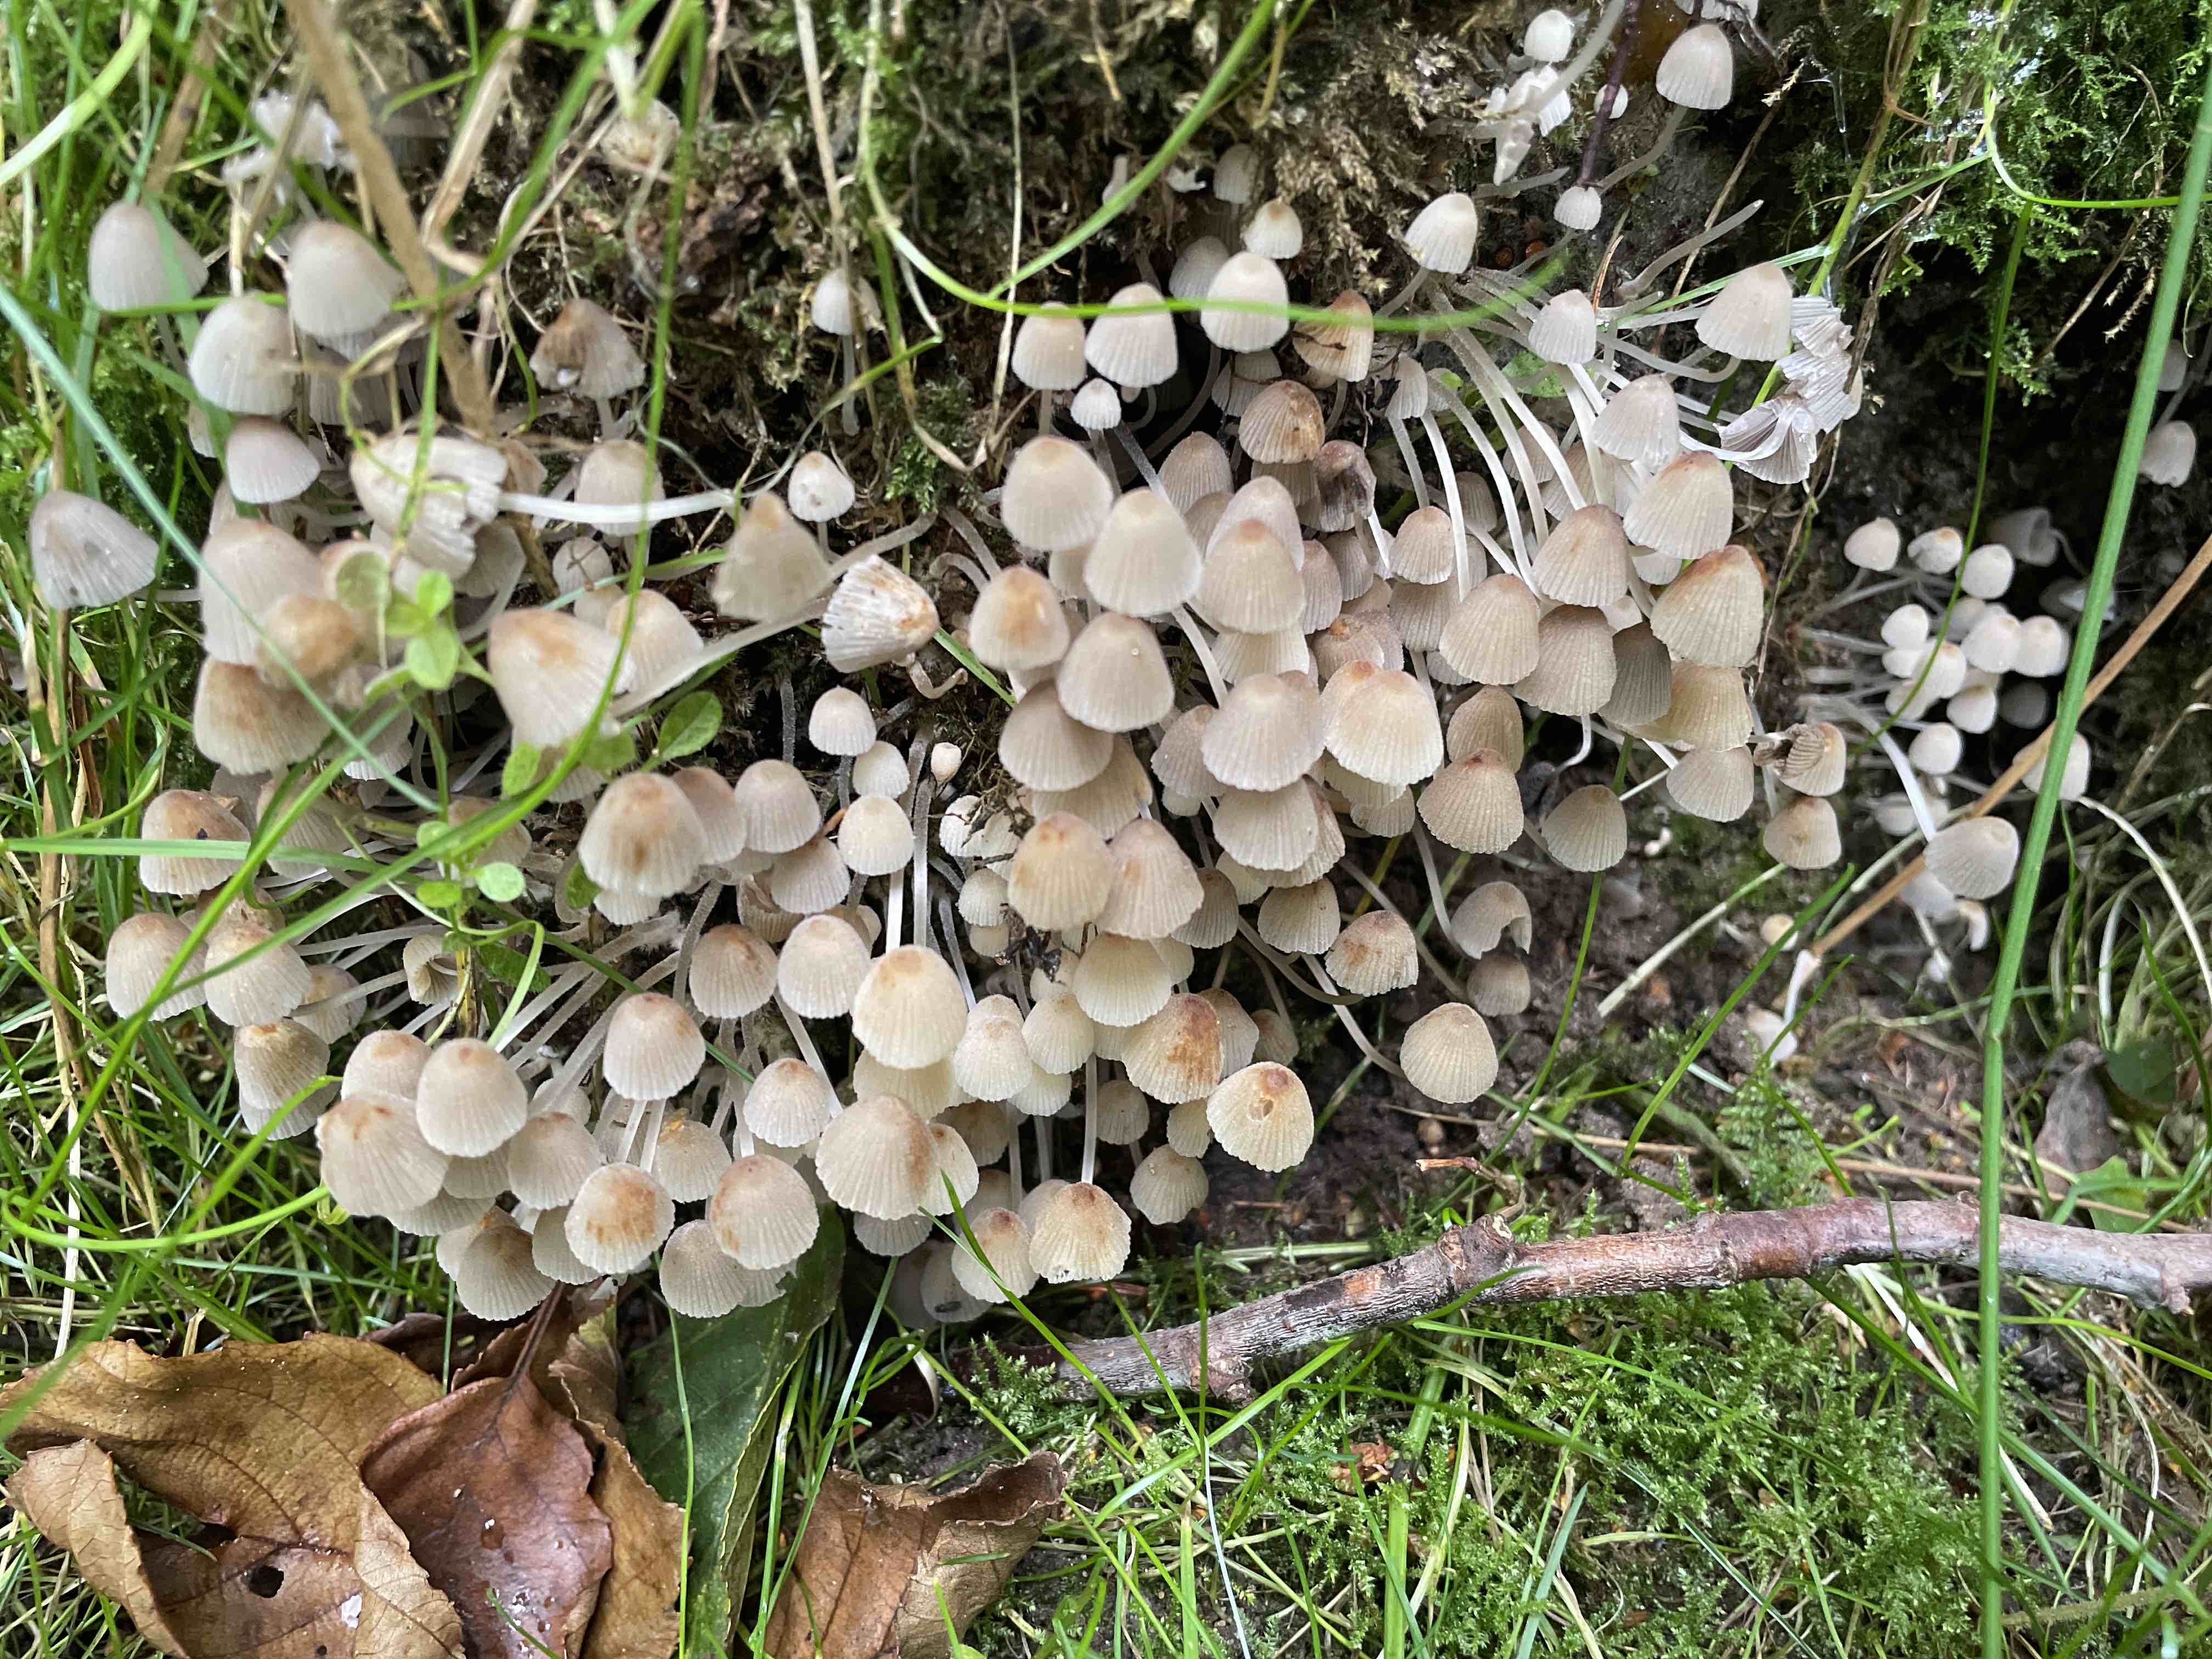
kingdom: Fungi
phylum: Basidiomycota
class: Agaricomycetes
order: Agaricales
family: Psathyrellaceae
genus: Coprinellus
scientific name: Coprinellus disseminatus
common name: bredsået blækhat
